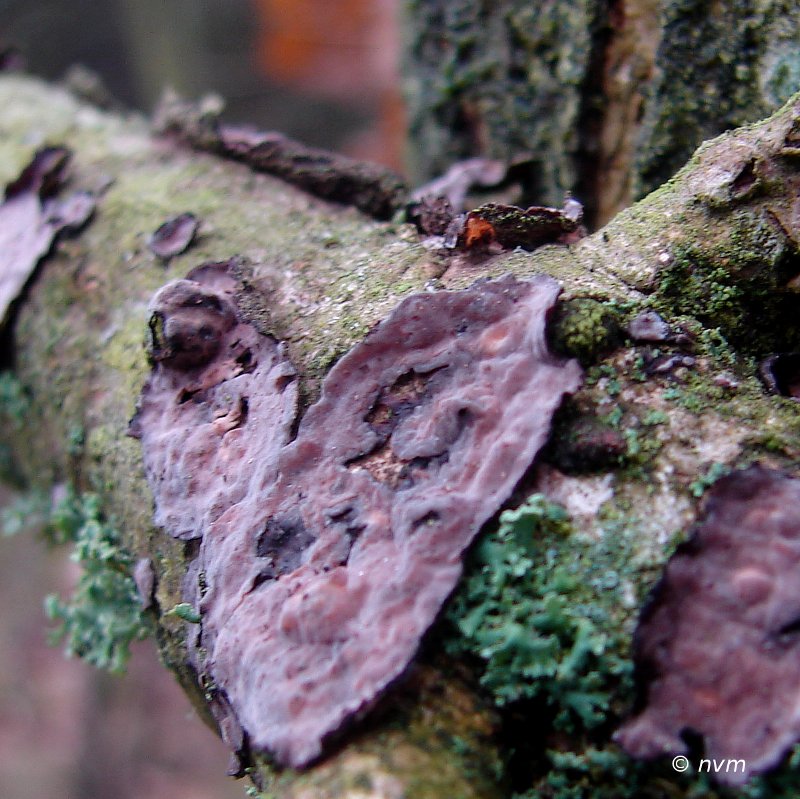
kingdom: Fungi
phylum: Basidiomycota
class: Agaricomycetes
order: Russulales
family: Peniophoraceae
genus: Peniophora
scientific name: Peniophora quercina
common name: ege-voksskind
